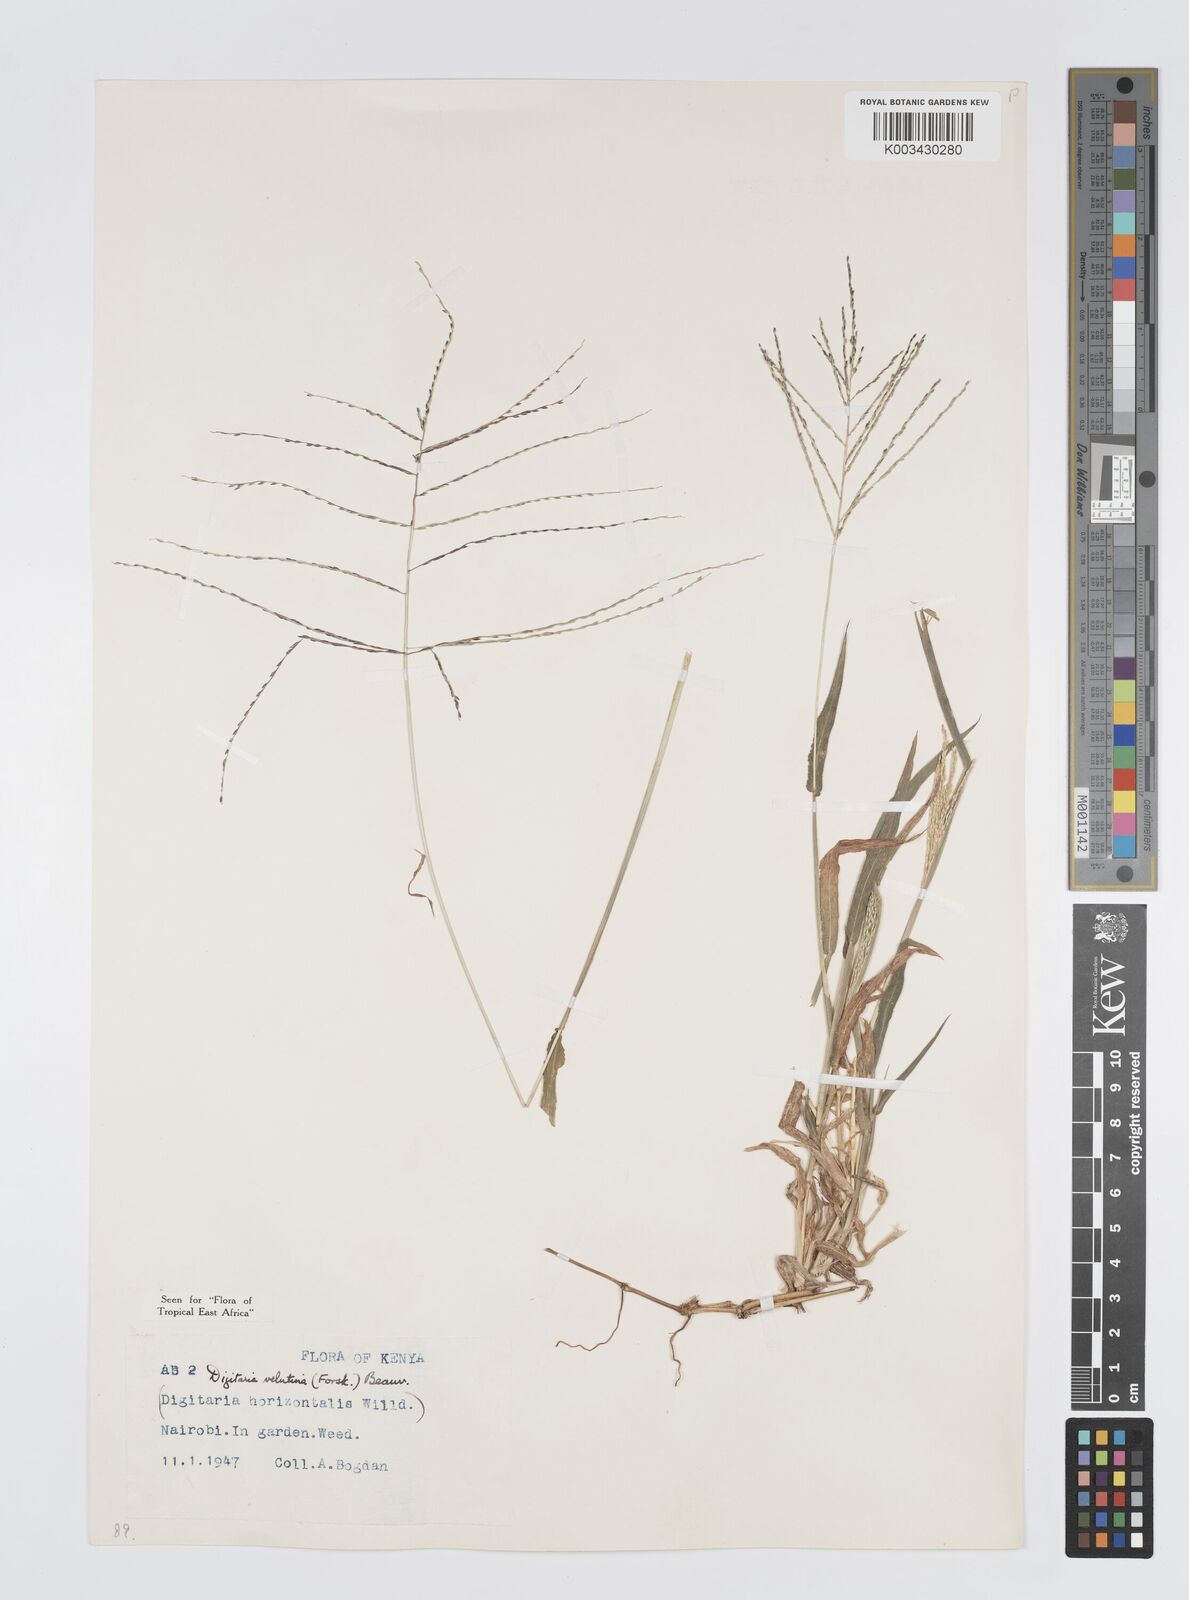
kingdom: Plantae
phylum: Tracheophyta
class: Liliopsida
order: Poales
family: Poaceae
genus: Digitaria
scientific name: Digitaria velutina
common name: Long-plume finger grass
